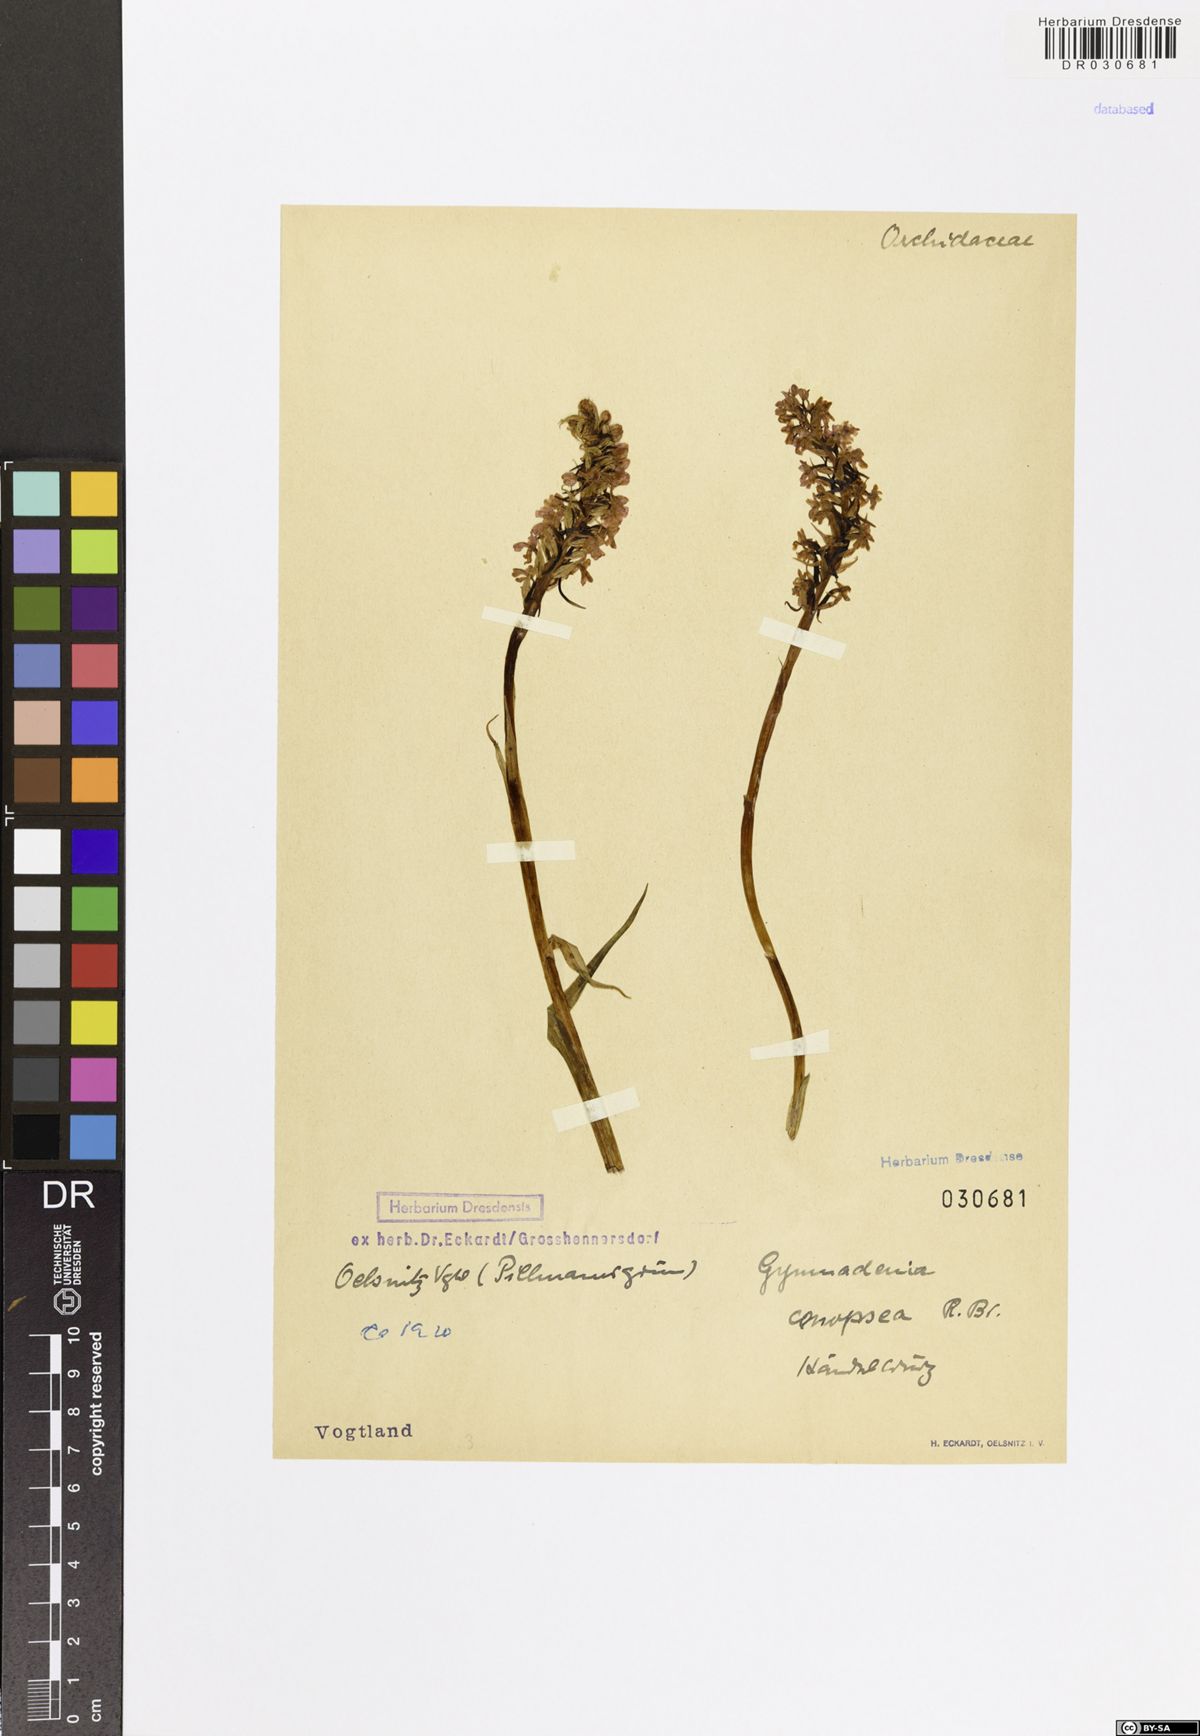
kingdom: Plantae
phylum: Tracheophyta
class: Liliopsida
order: Asparagales
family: Orchidaceae
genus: Gymnadenia
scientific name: Gymnadenia conopsea
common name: Fragrant orchid
